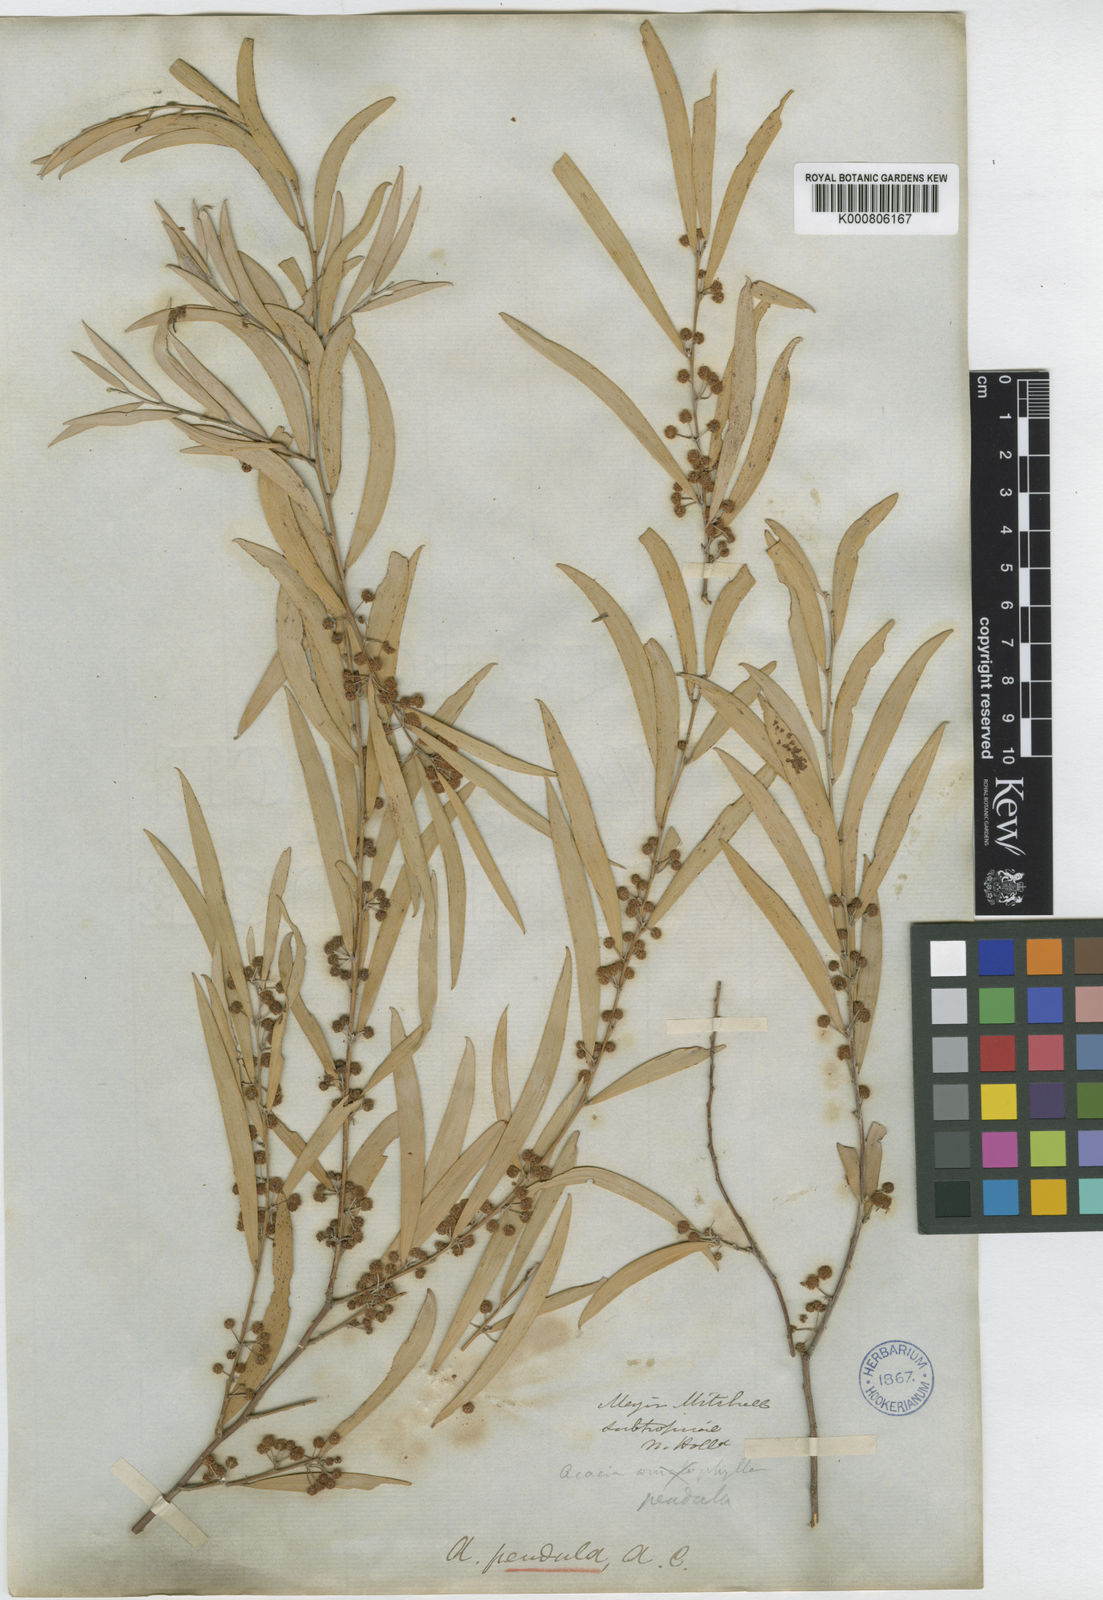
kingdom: Plantae
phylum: Tracheophyta
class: Magnoliopsida
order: Fabales
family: Fabaceae
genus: Acacia
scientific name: Acacia pendula
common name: Weeping myall
